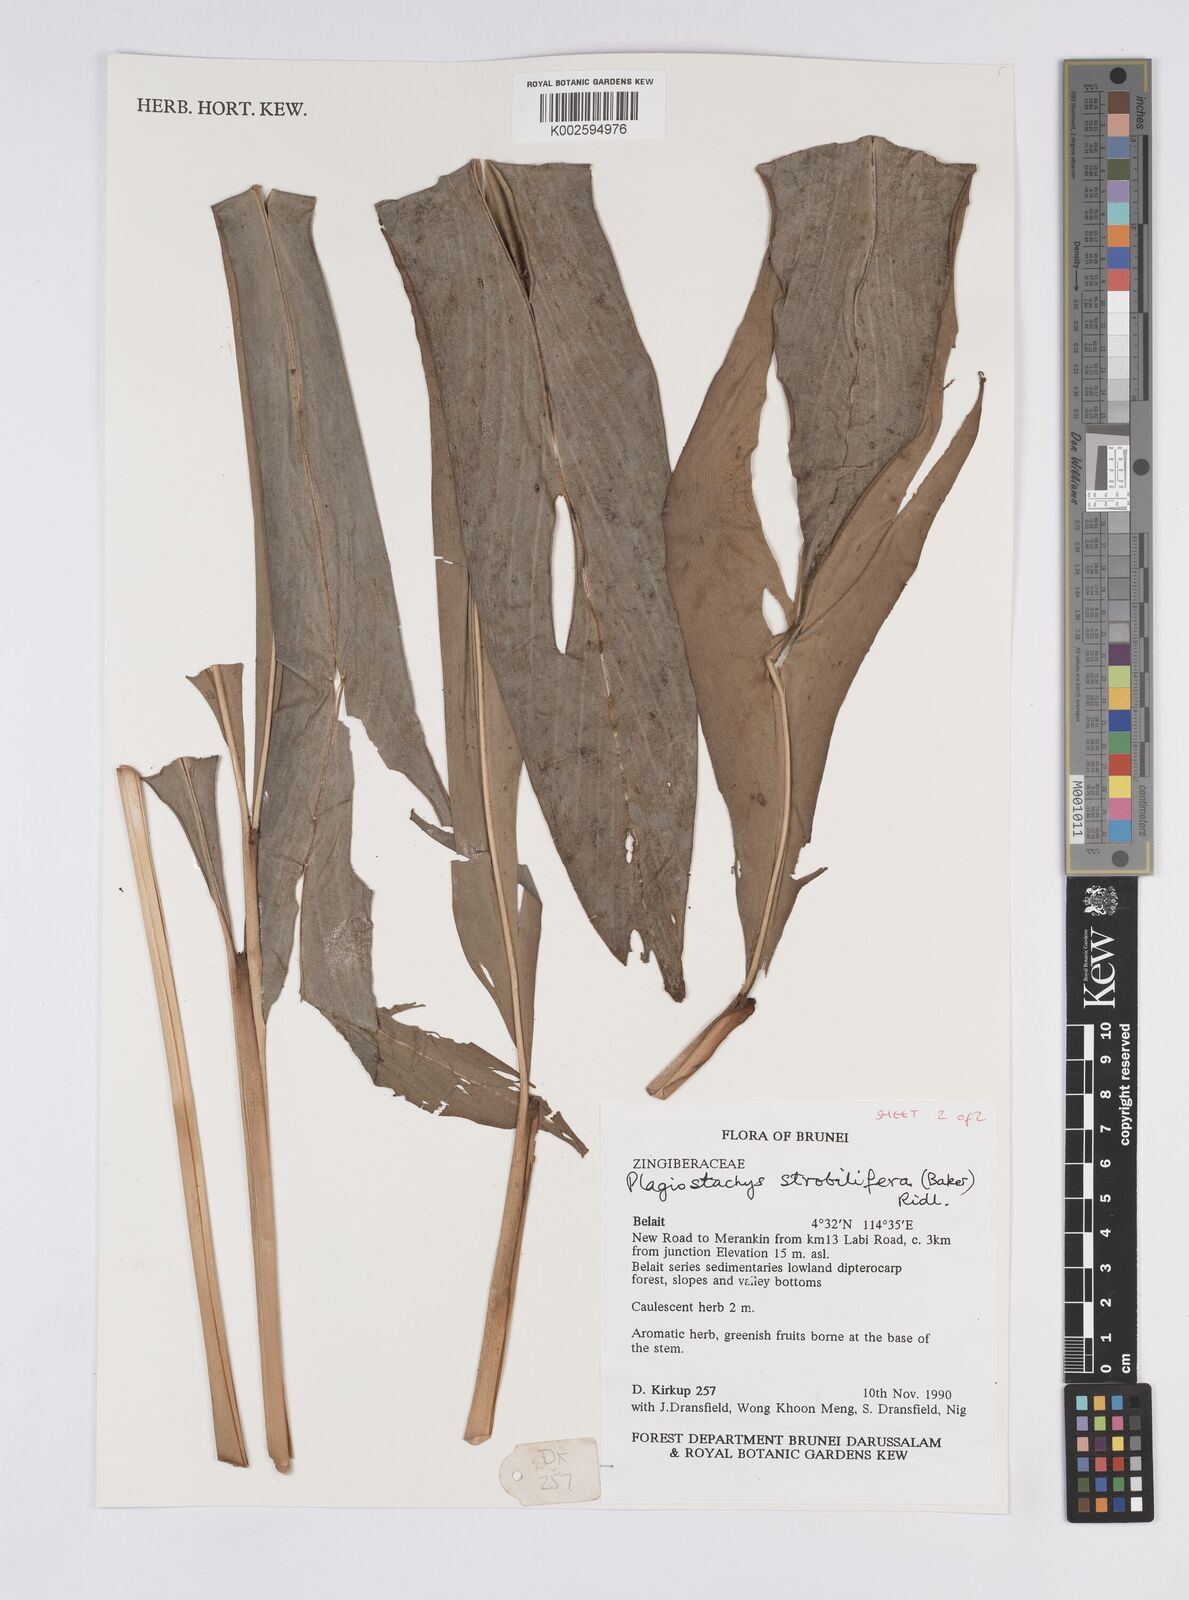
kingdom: Plantae
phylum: Tracheophyta
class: Liliopsida
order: Zingiberales
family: Zingiberaceae
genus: Plagiostachys
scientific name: Plagiostachys strobilifera
